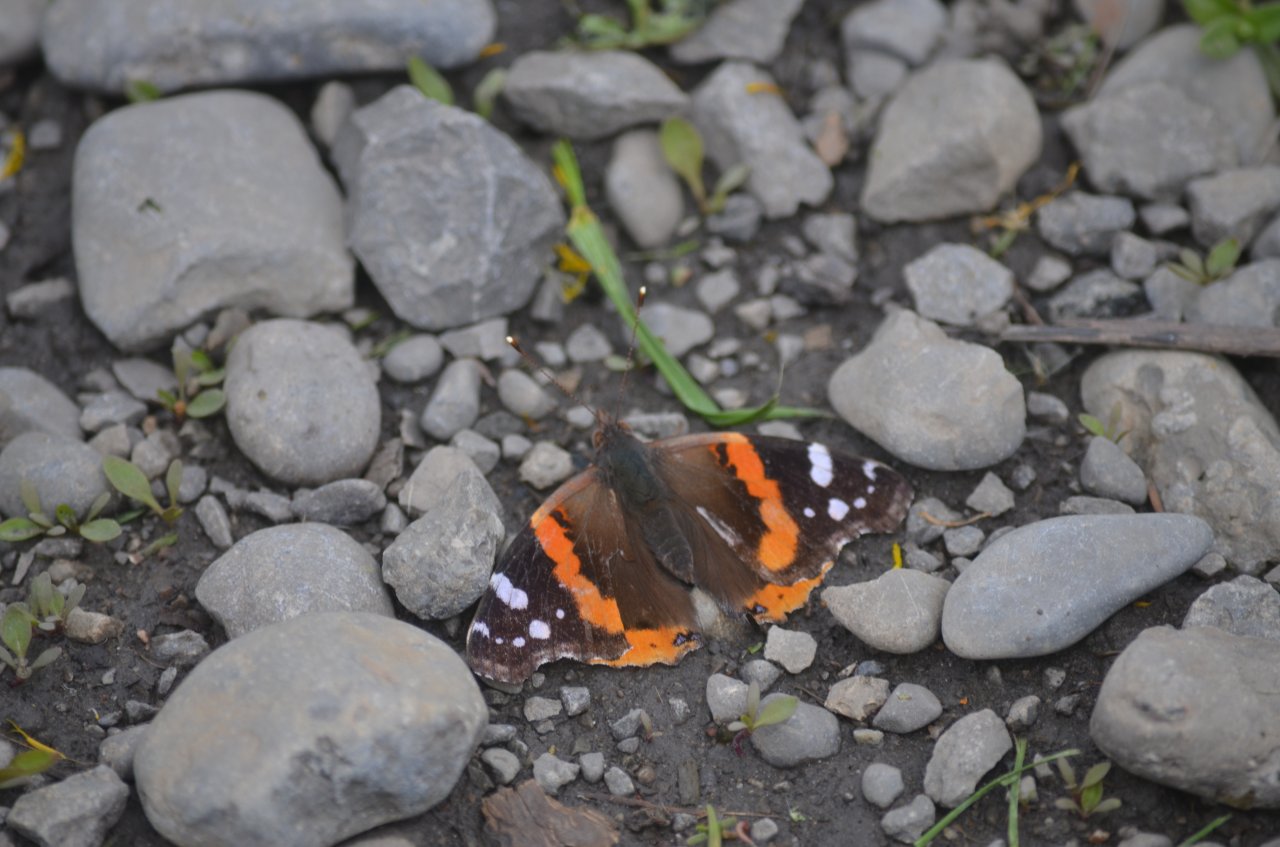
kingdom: Animalia
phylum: Arthropoda
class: Insecta
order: Lepidoptera
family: Nymphalidae
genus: Vanessa
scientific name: Vanessa atalanta
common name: Red Admiral
